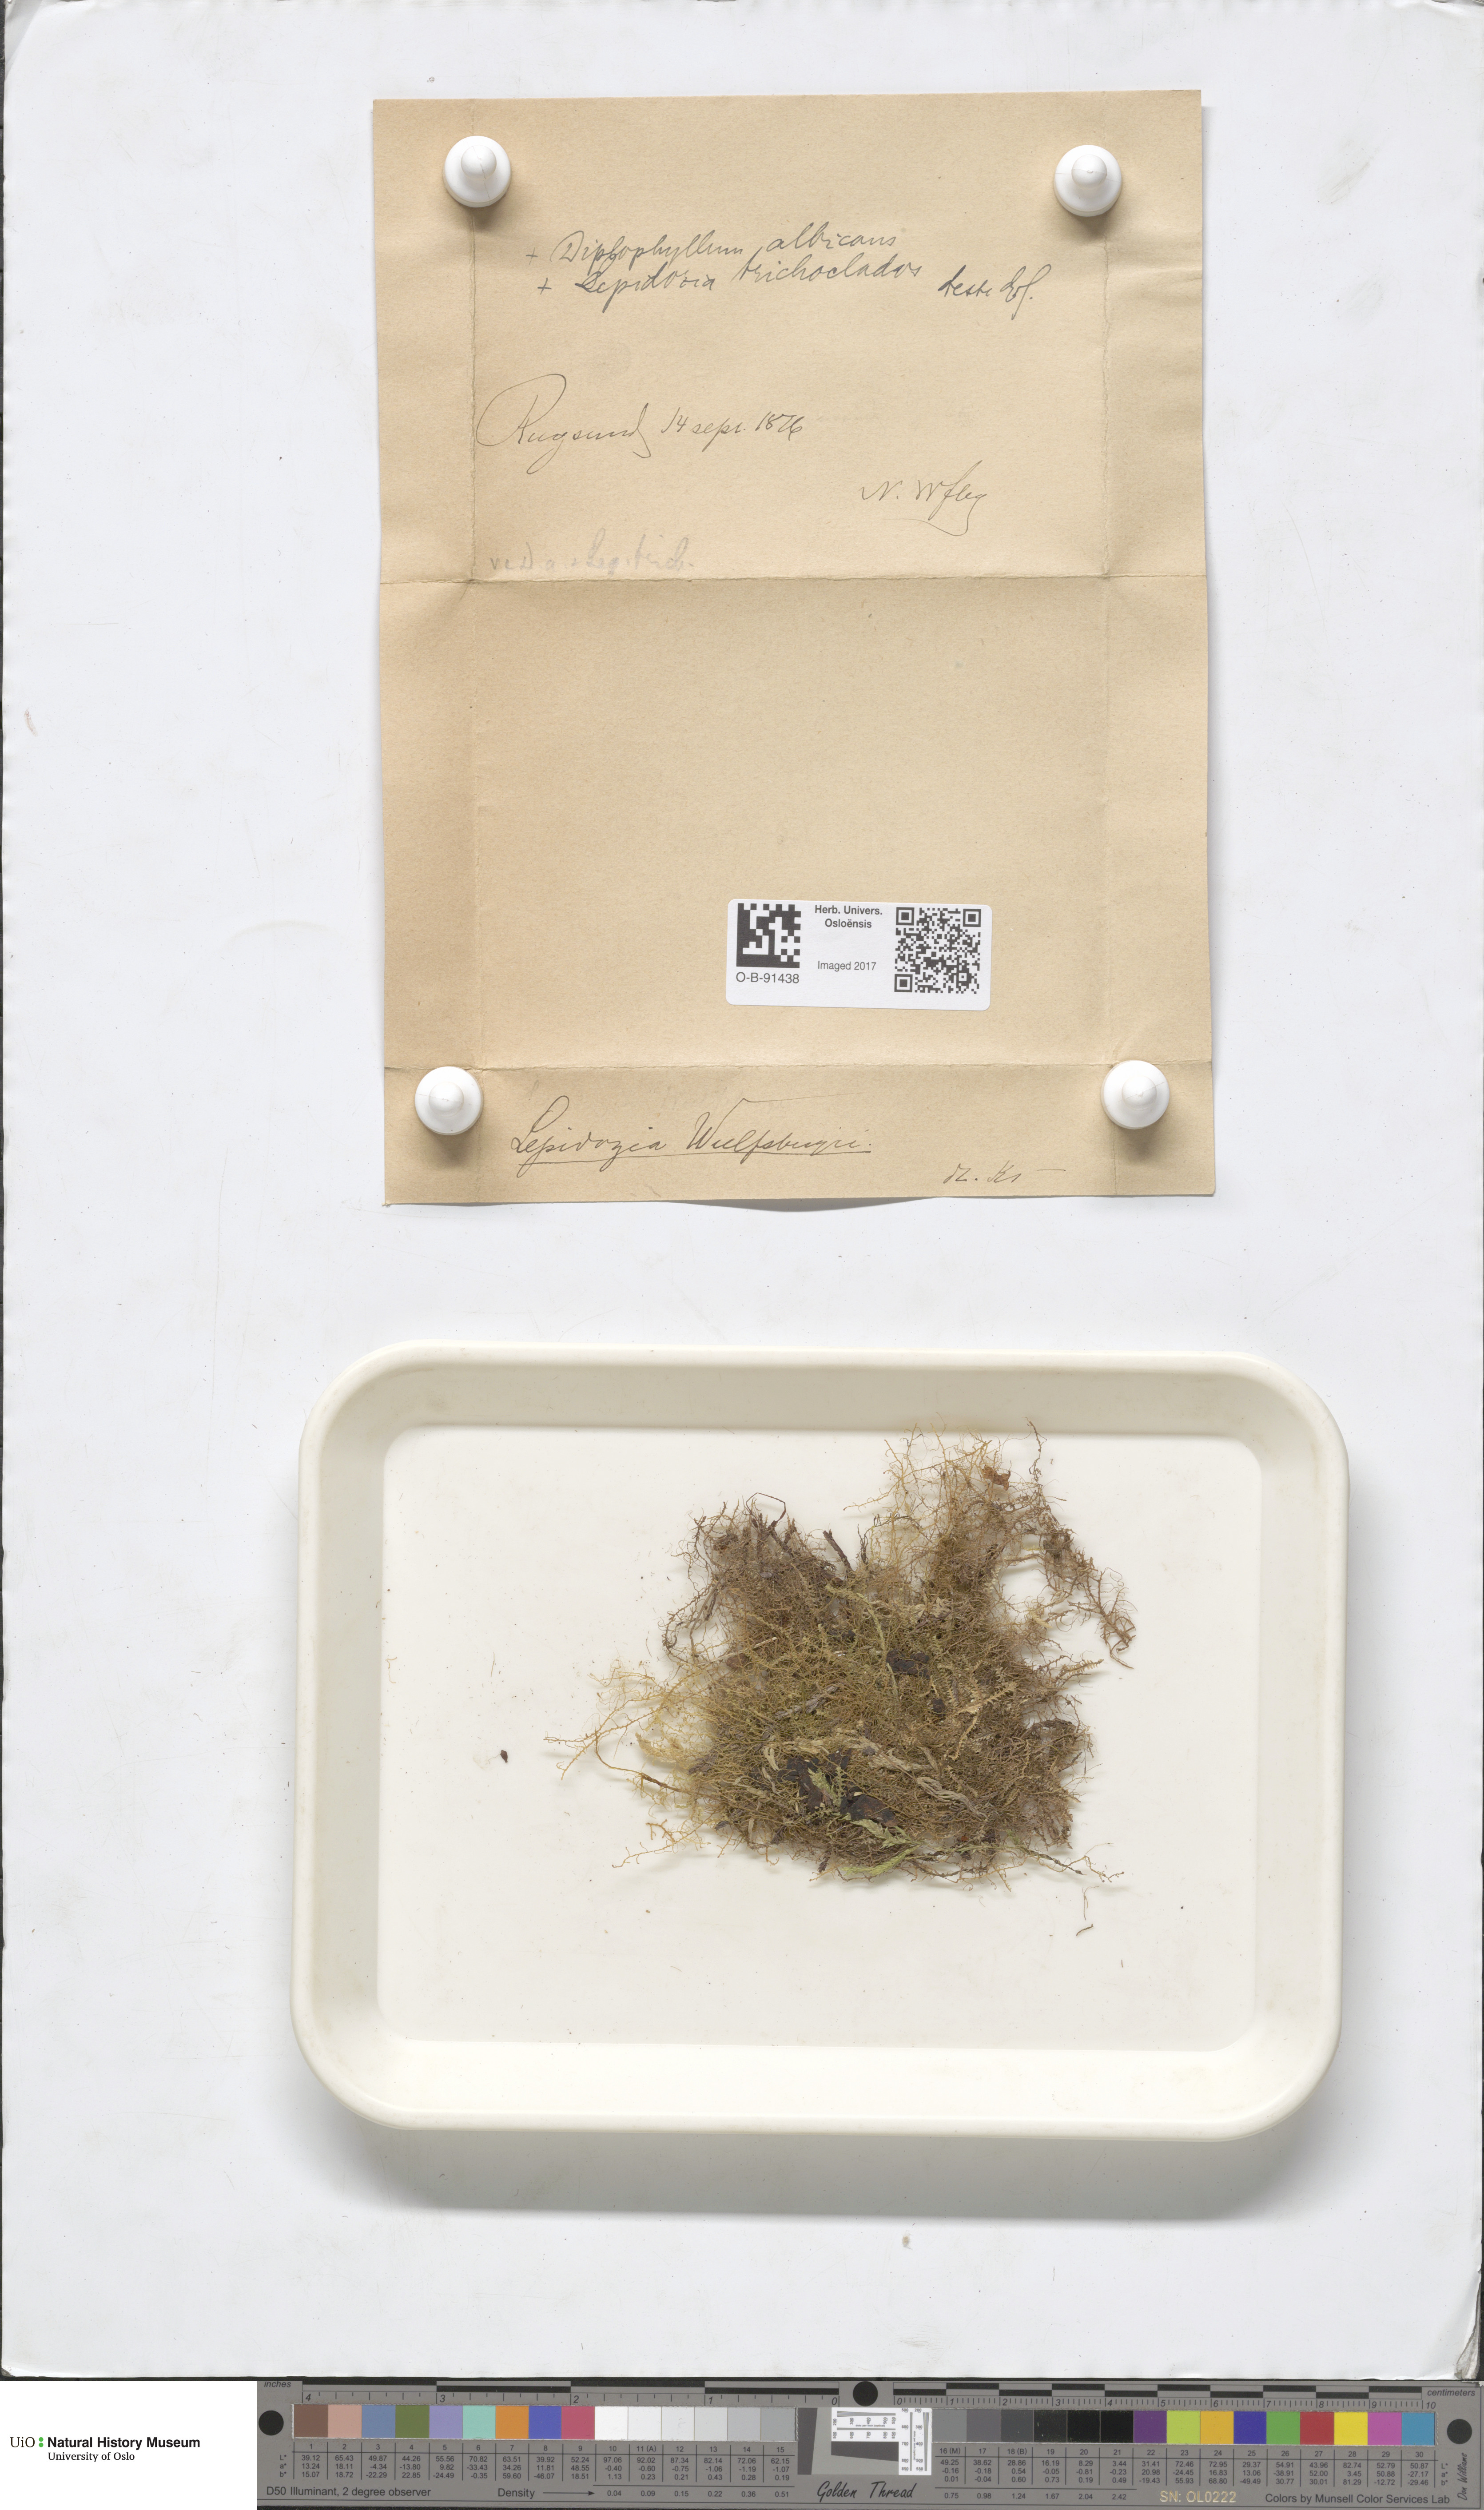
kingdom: Plantae
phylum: Marchantiophyta
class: Jungermanniopsida
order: Jungermanniales
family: Lepidoziaceae
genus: Lepidozia
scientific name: Lepidozia pearsonii
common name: Pearson's fingerwort
